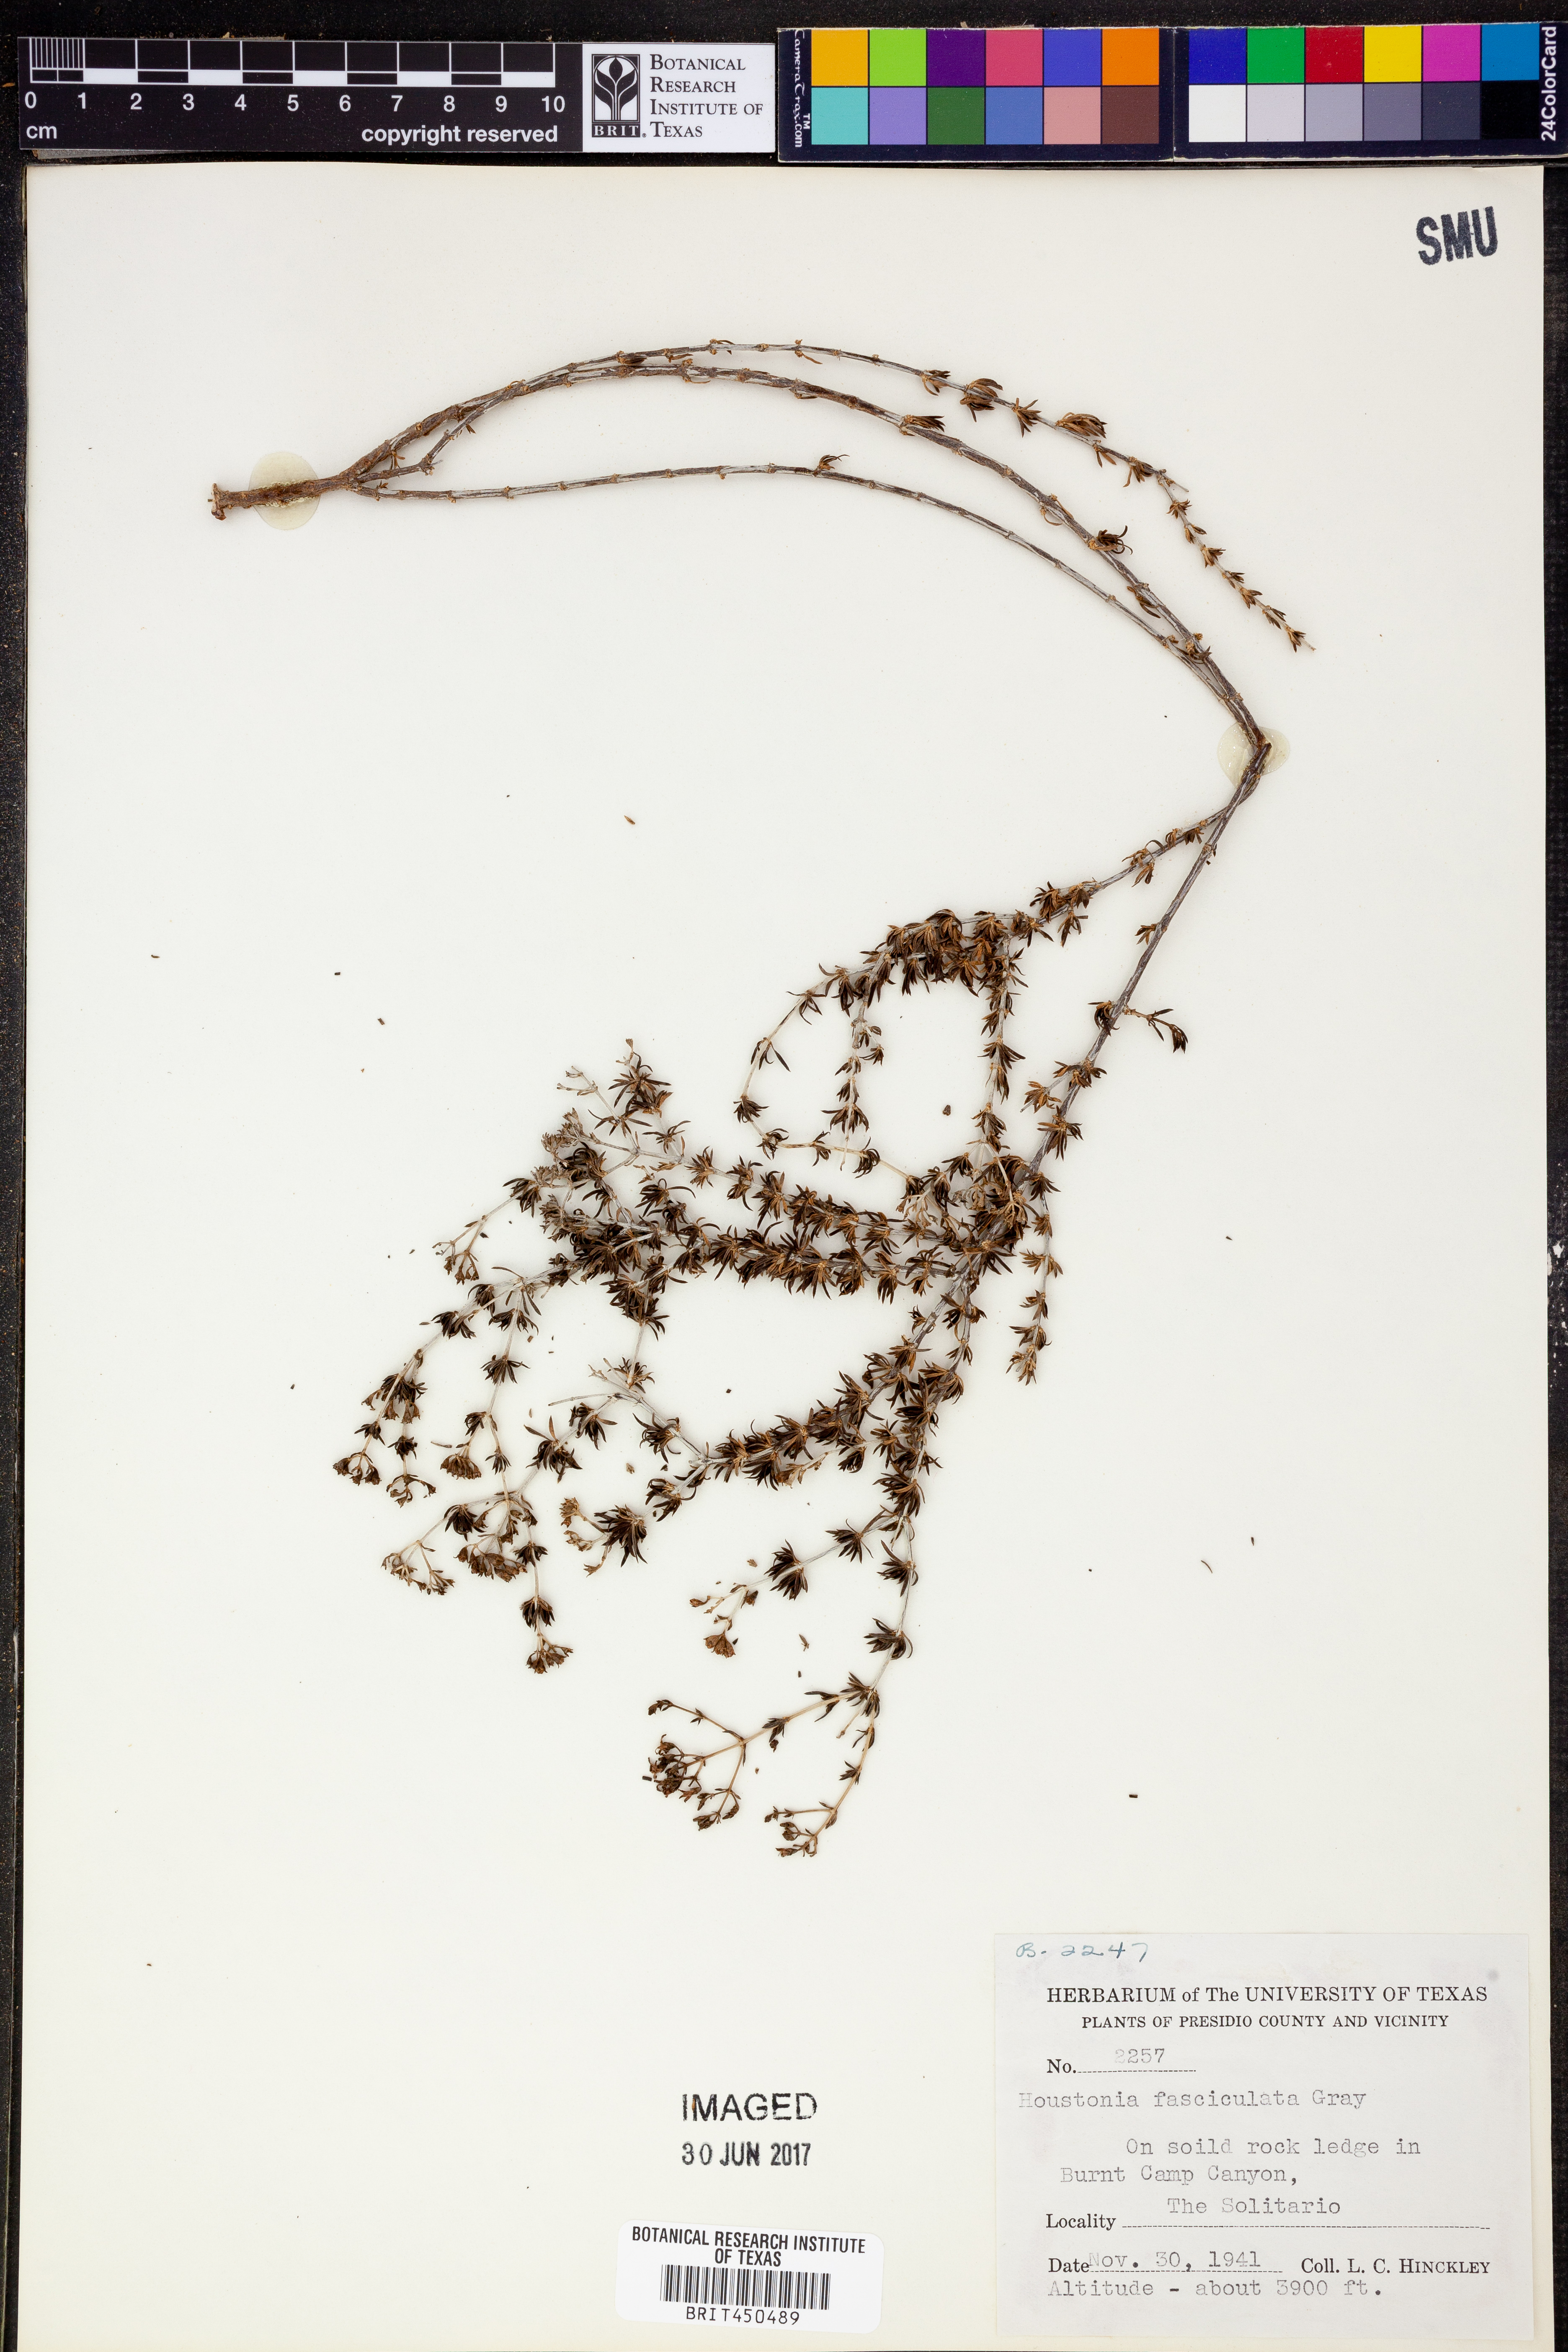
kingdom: Plantae
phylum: Tracheophyta
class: Magnoliopsida
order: Gentianales
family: Rubiaceae
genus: Arcytophyllum
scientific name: Arcytophyllum fasciculatum
